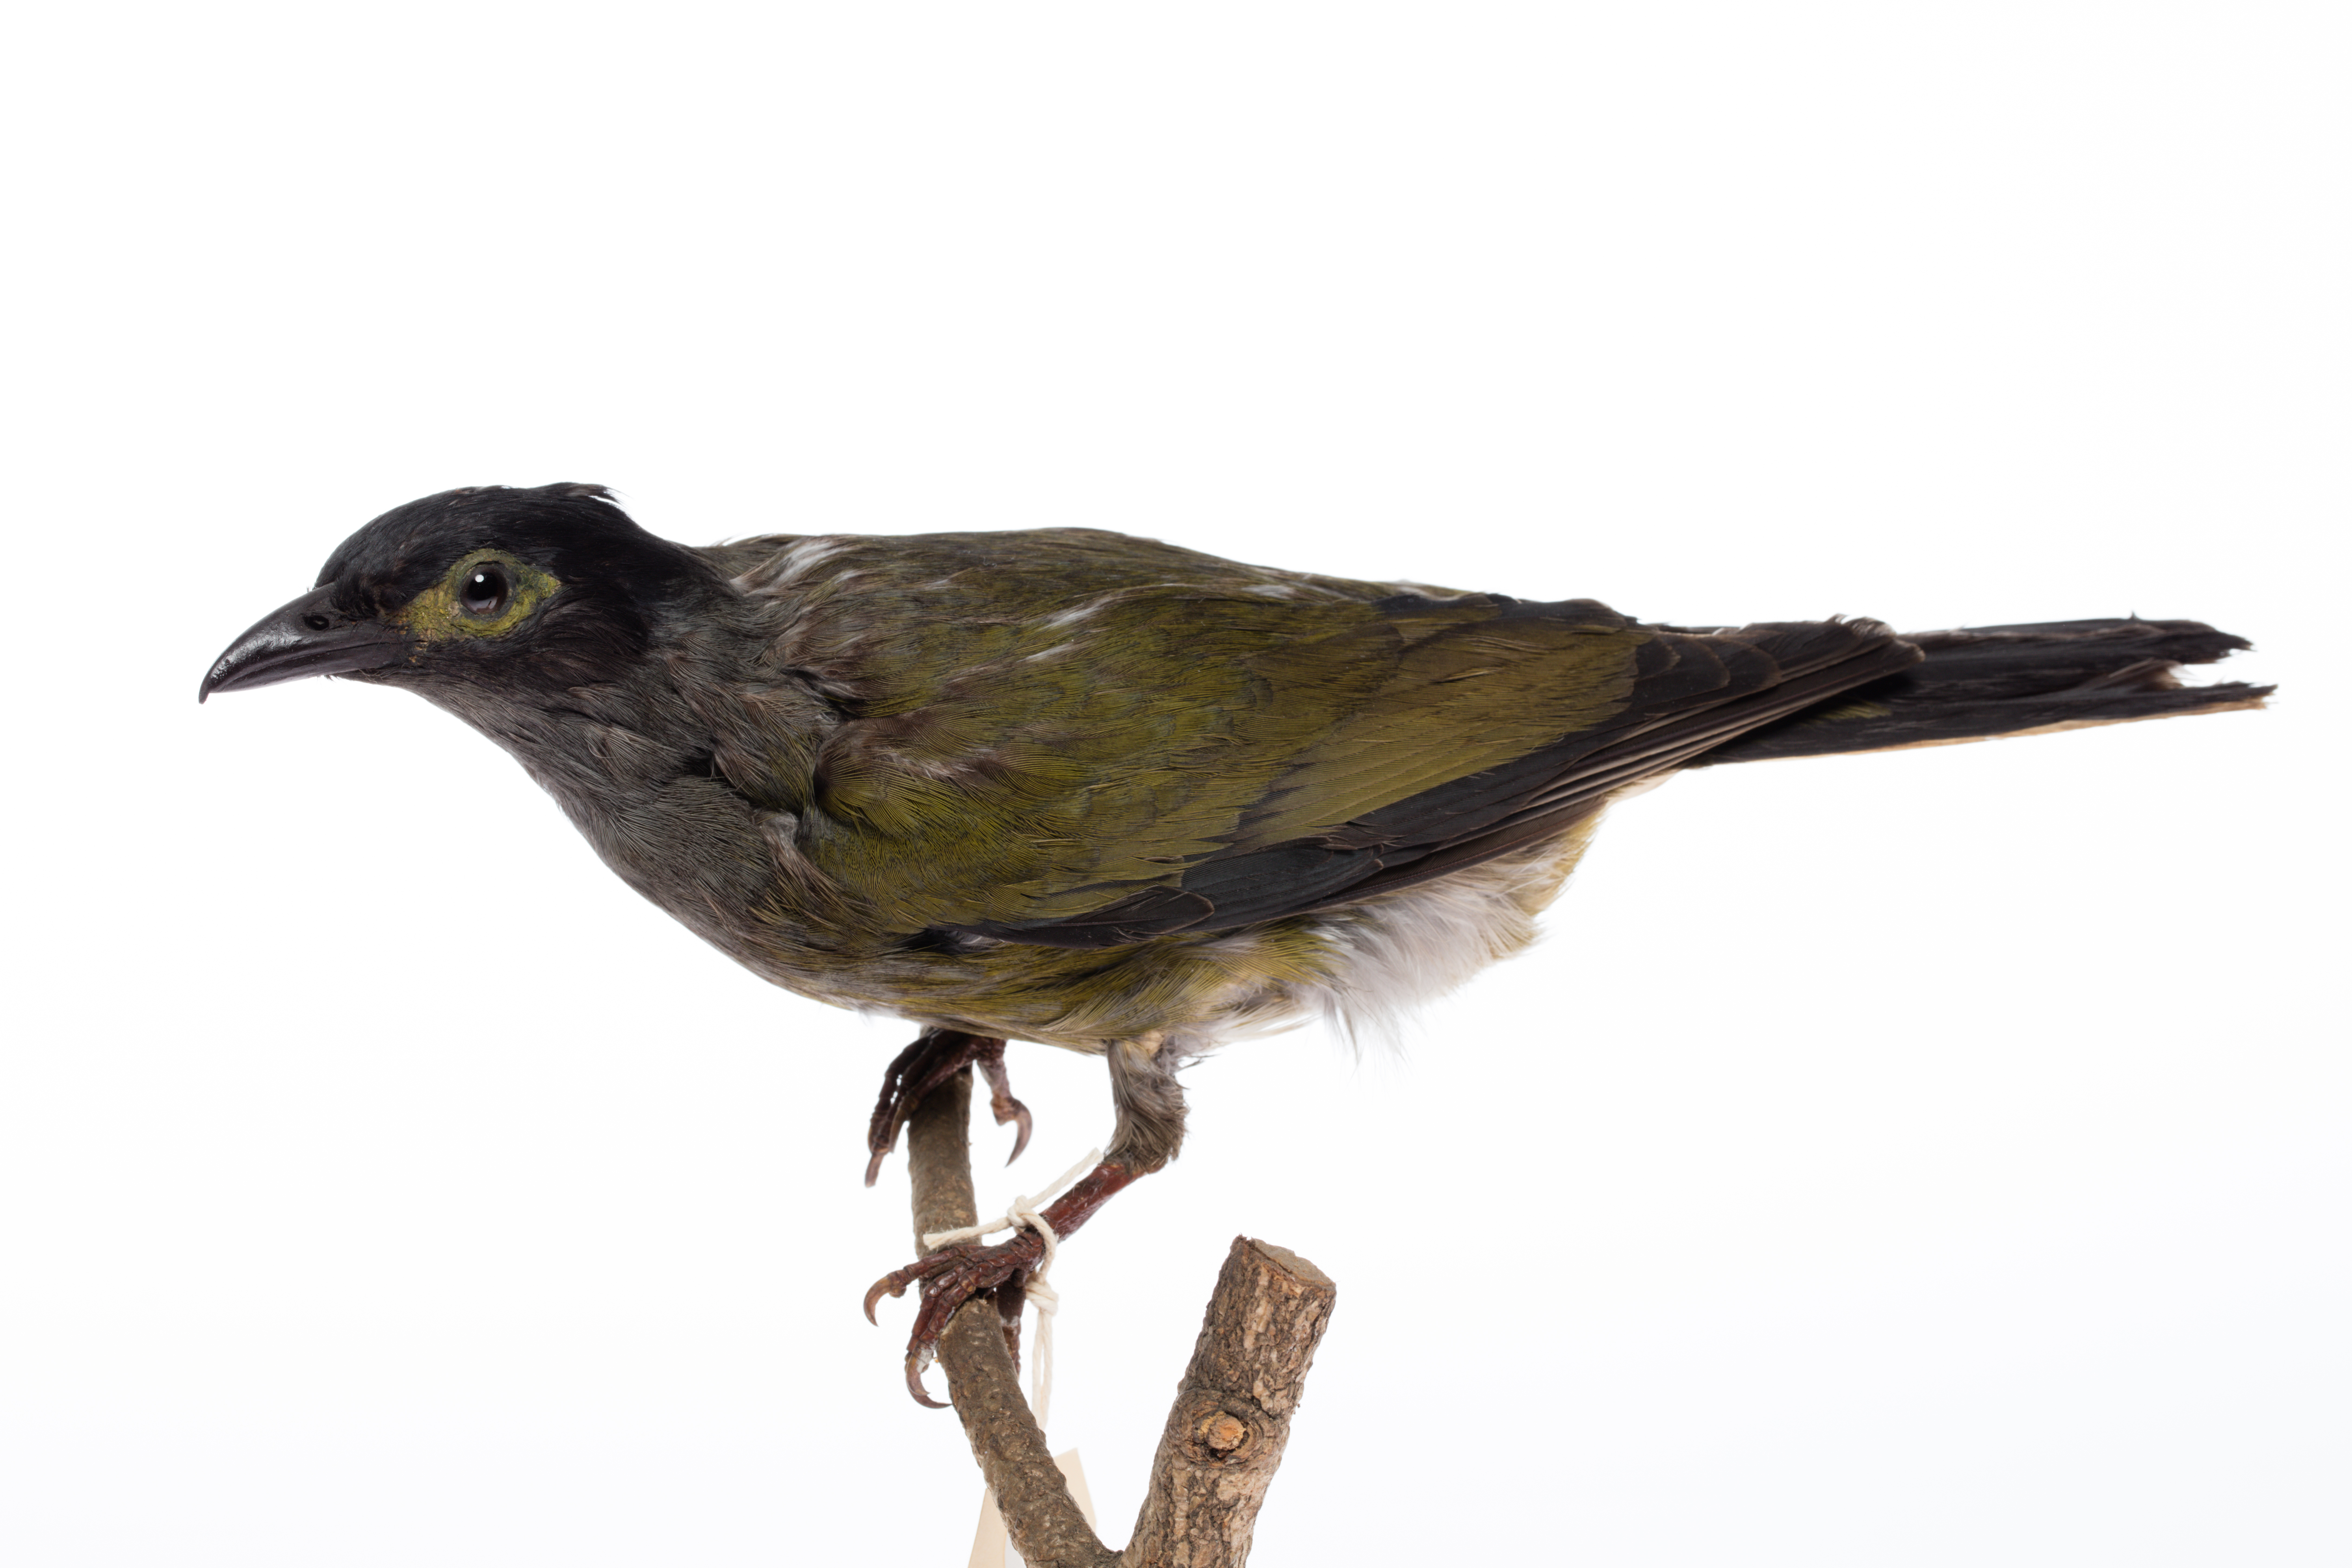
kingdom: Animalia
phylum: Chordata
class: Aves
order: Passeriformes
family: Oriolidae
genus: Sphecotheres
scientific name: Sphecotheres viridis
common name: Green figbird
